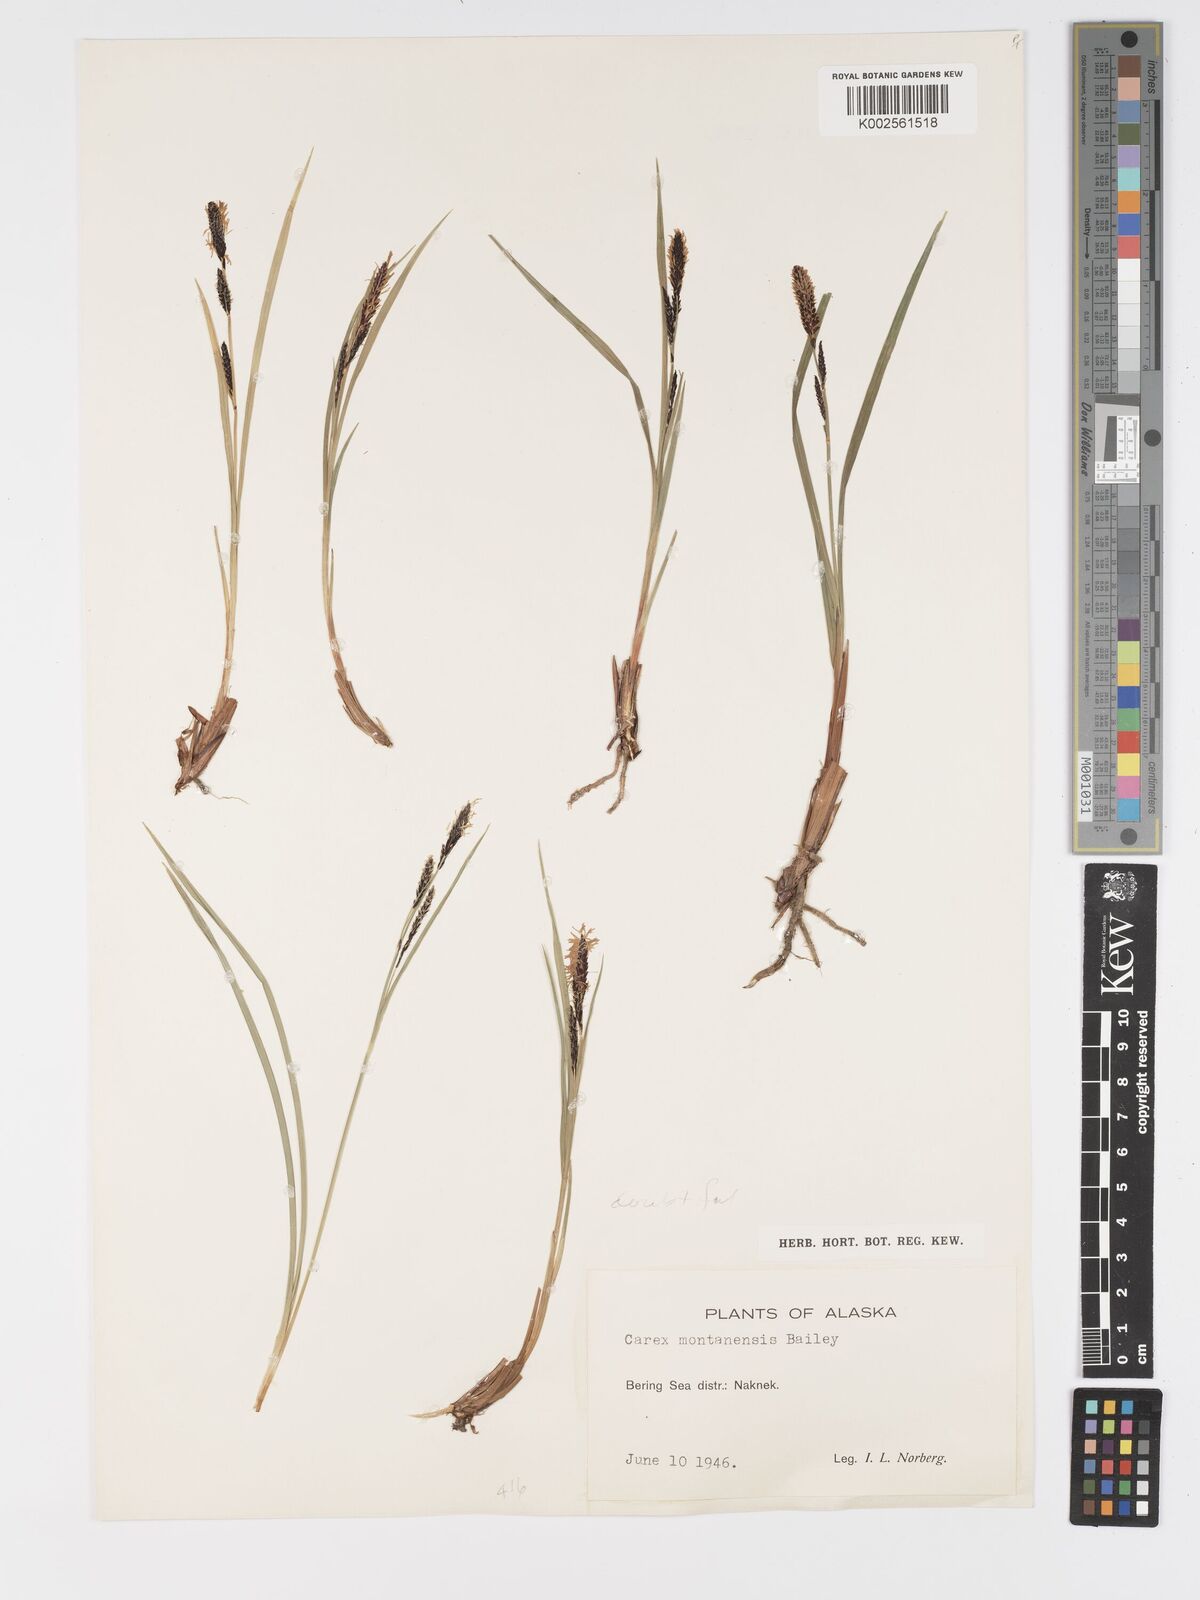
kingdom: Plantae
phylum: Tracheophyta
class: Liliopsida
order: Poales
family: Cyperaceae
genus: Carex
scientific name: Carex podocarpa
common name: Alpine sedge
